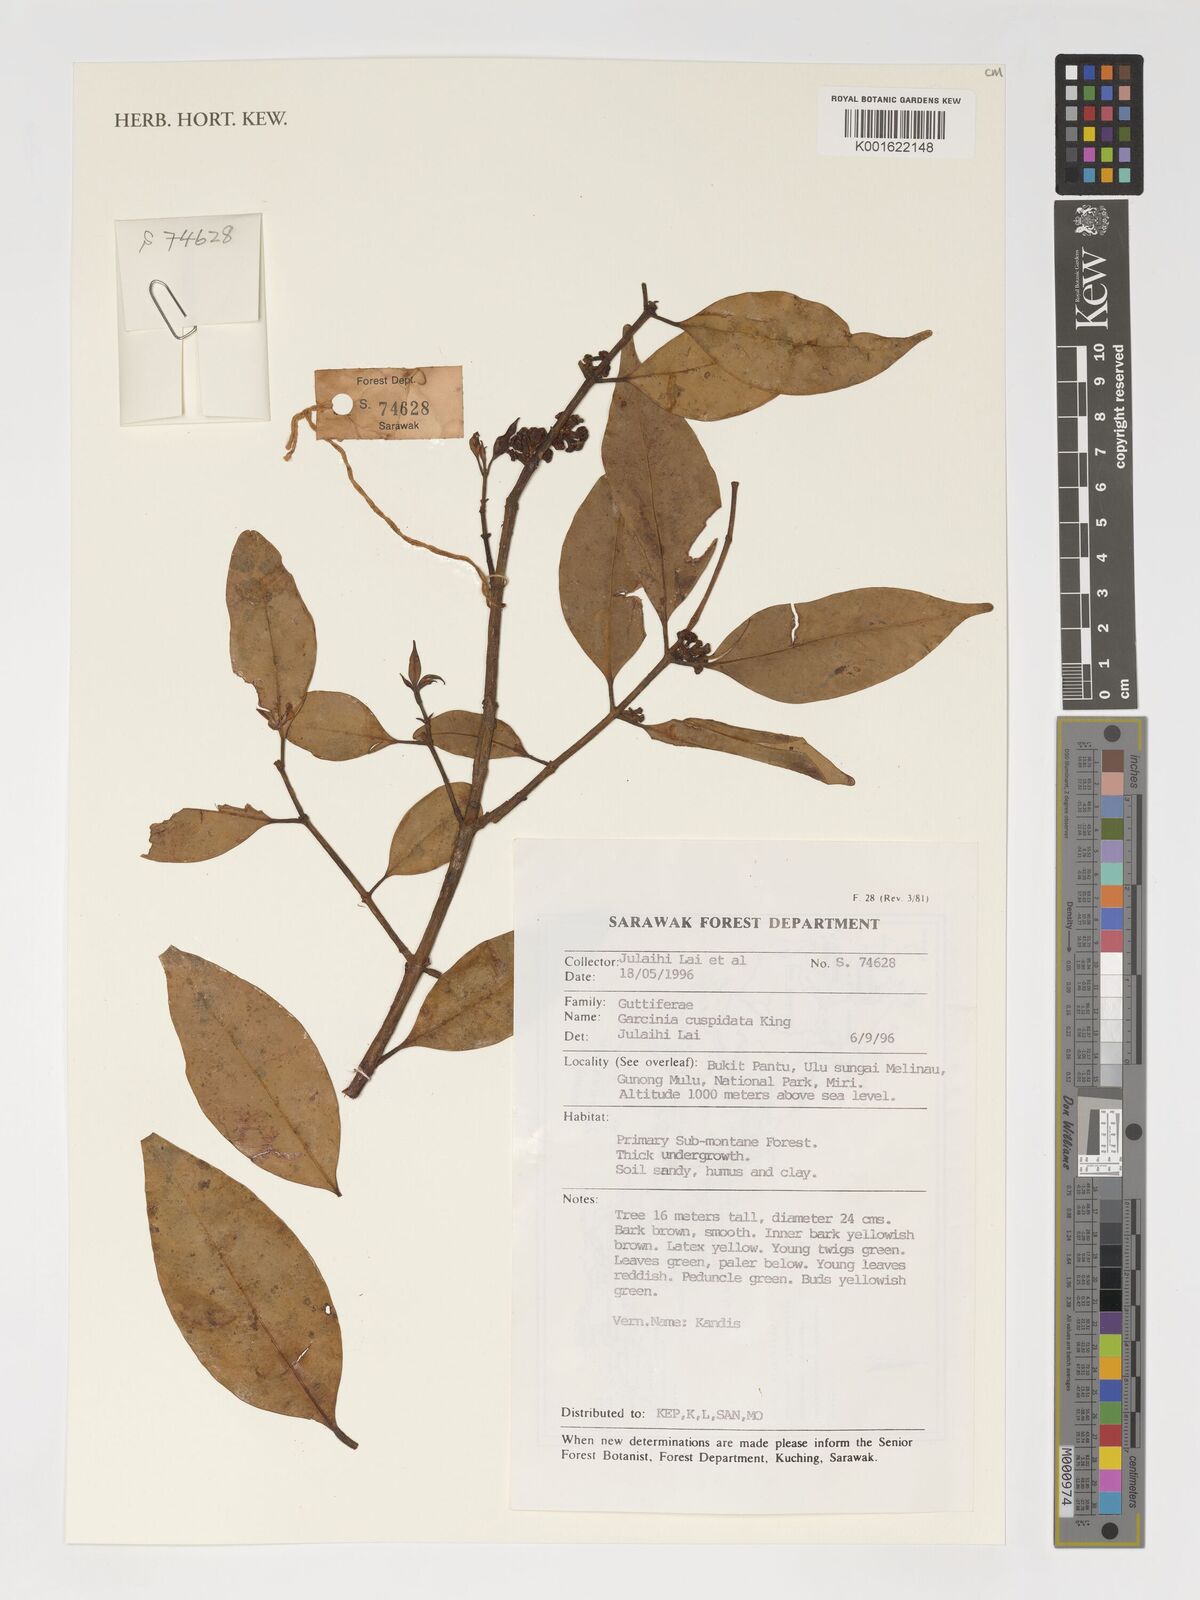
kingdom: Plantae
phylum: Tracheophyta
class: Magnoliopsida
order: Malpighiales
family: Clusiaceae
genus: Garcinia
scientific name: Garcinia cuspidata
